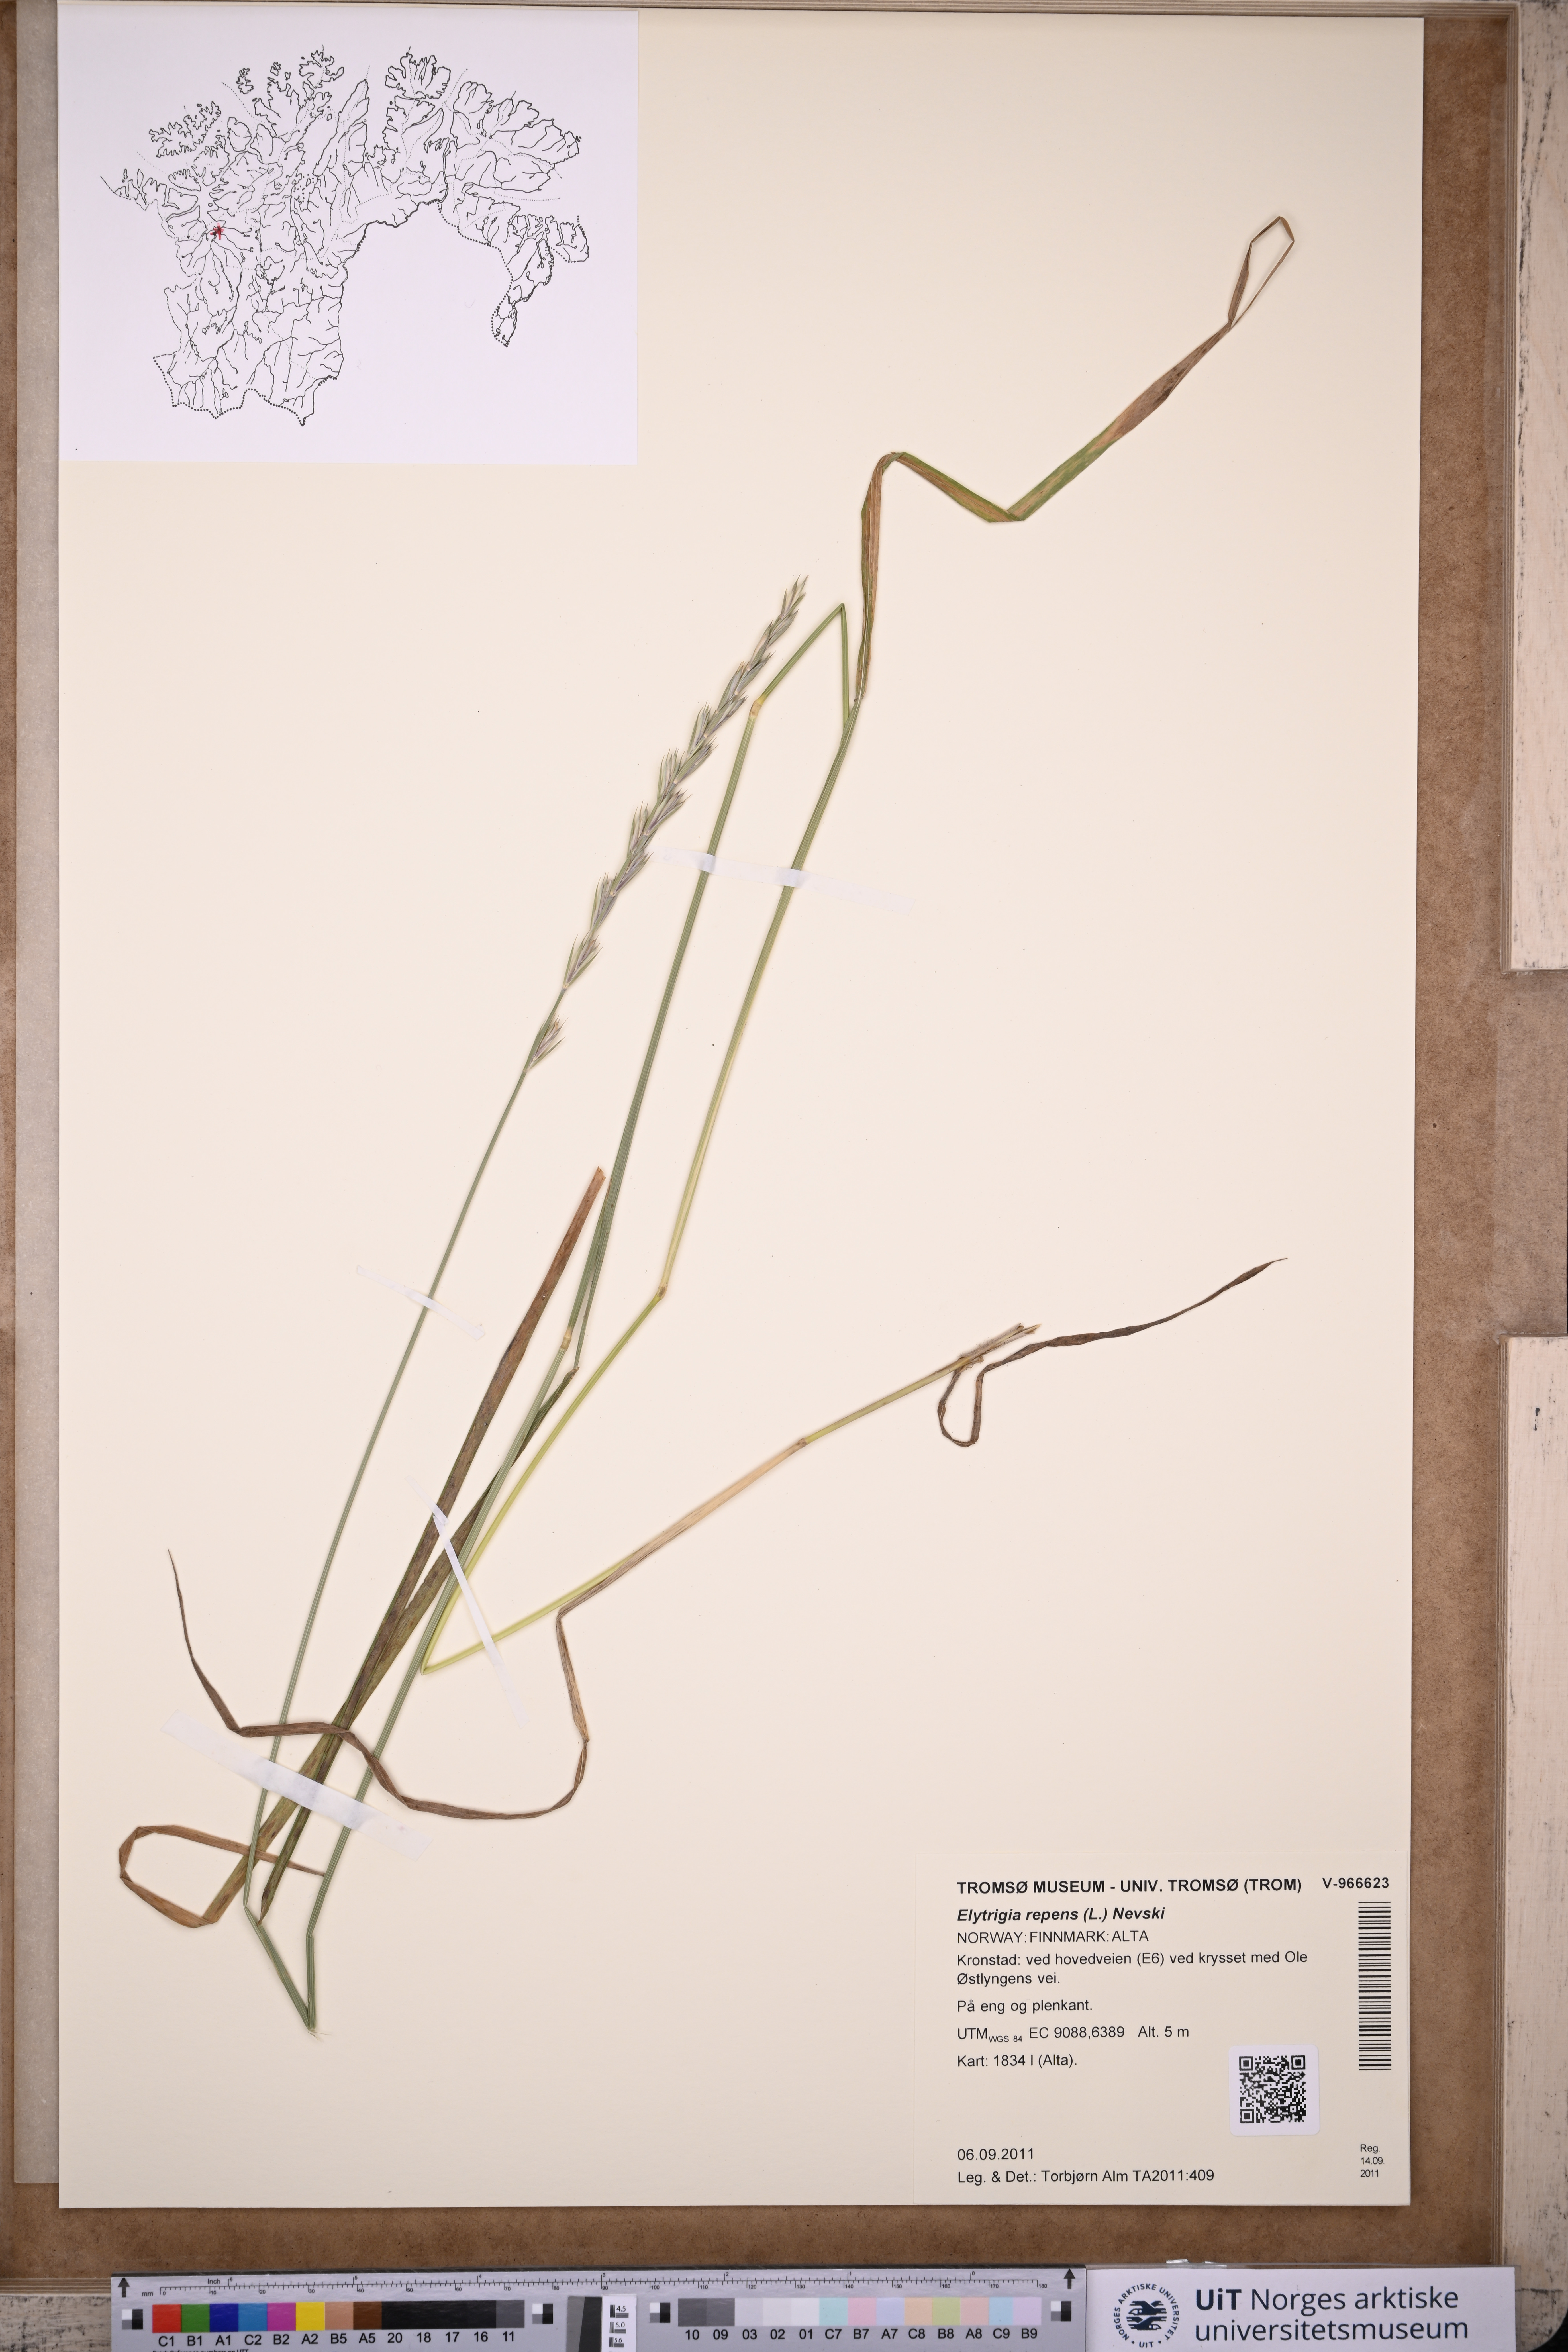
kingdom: Plantae
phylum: Tracheophyta
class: Liliopsida
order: Poales
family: Poaceae
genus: Elymus
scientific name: Elymus repens
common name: Quackgrass
